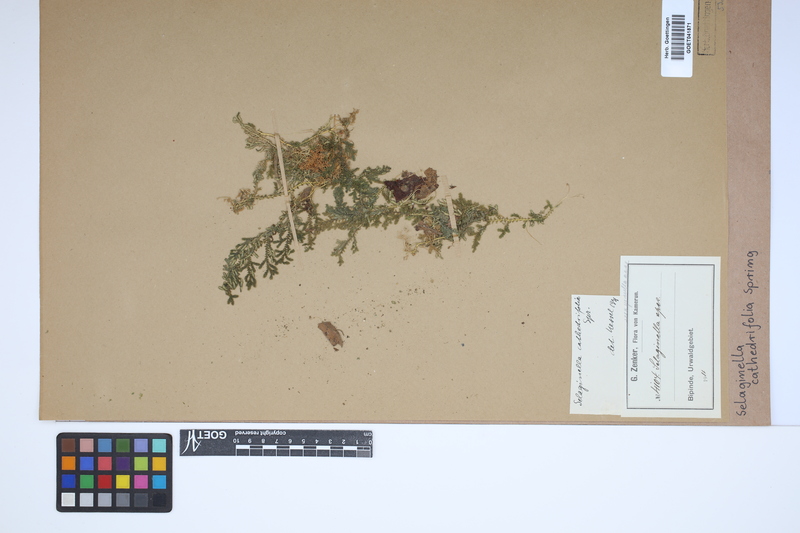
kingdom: Plantae
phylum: Tracheophyta
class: Lycopodiopsida
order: Selaginellales
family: Selaginellaceae
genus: Selaginella
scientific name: Selaginella cathedrifolia
